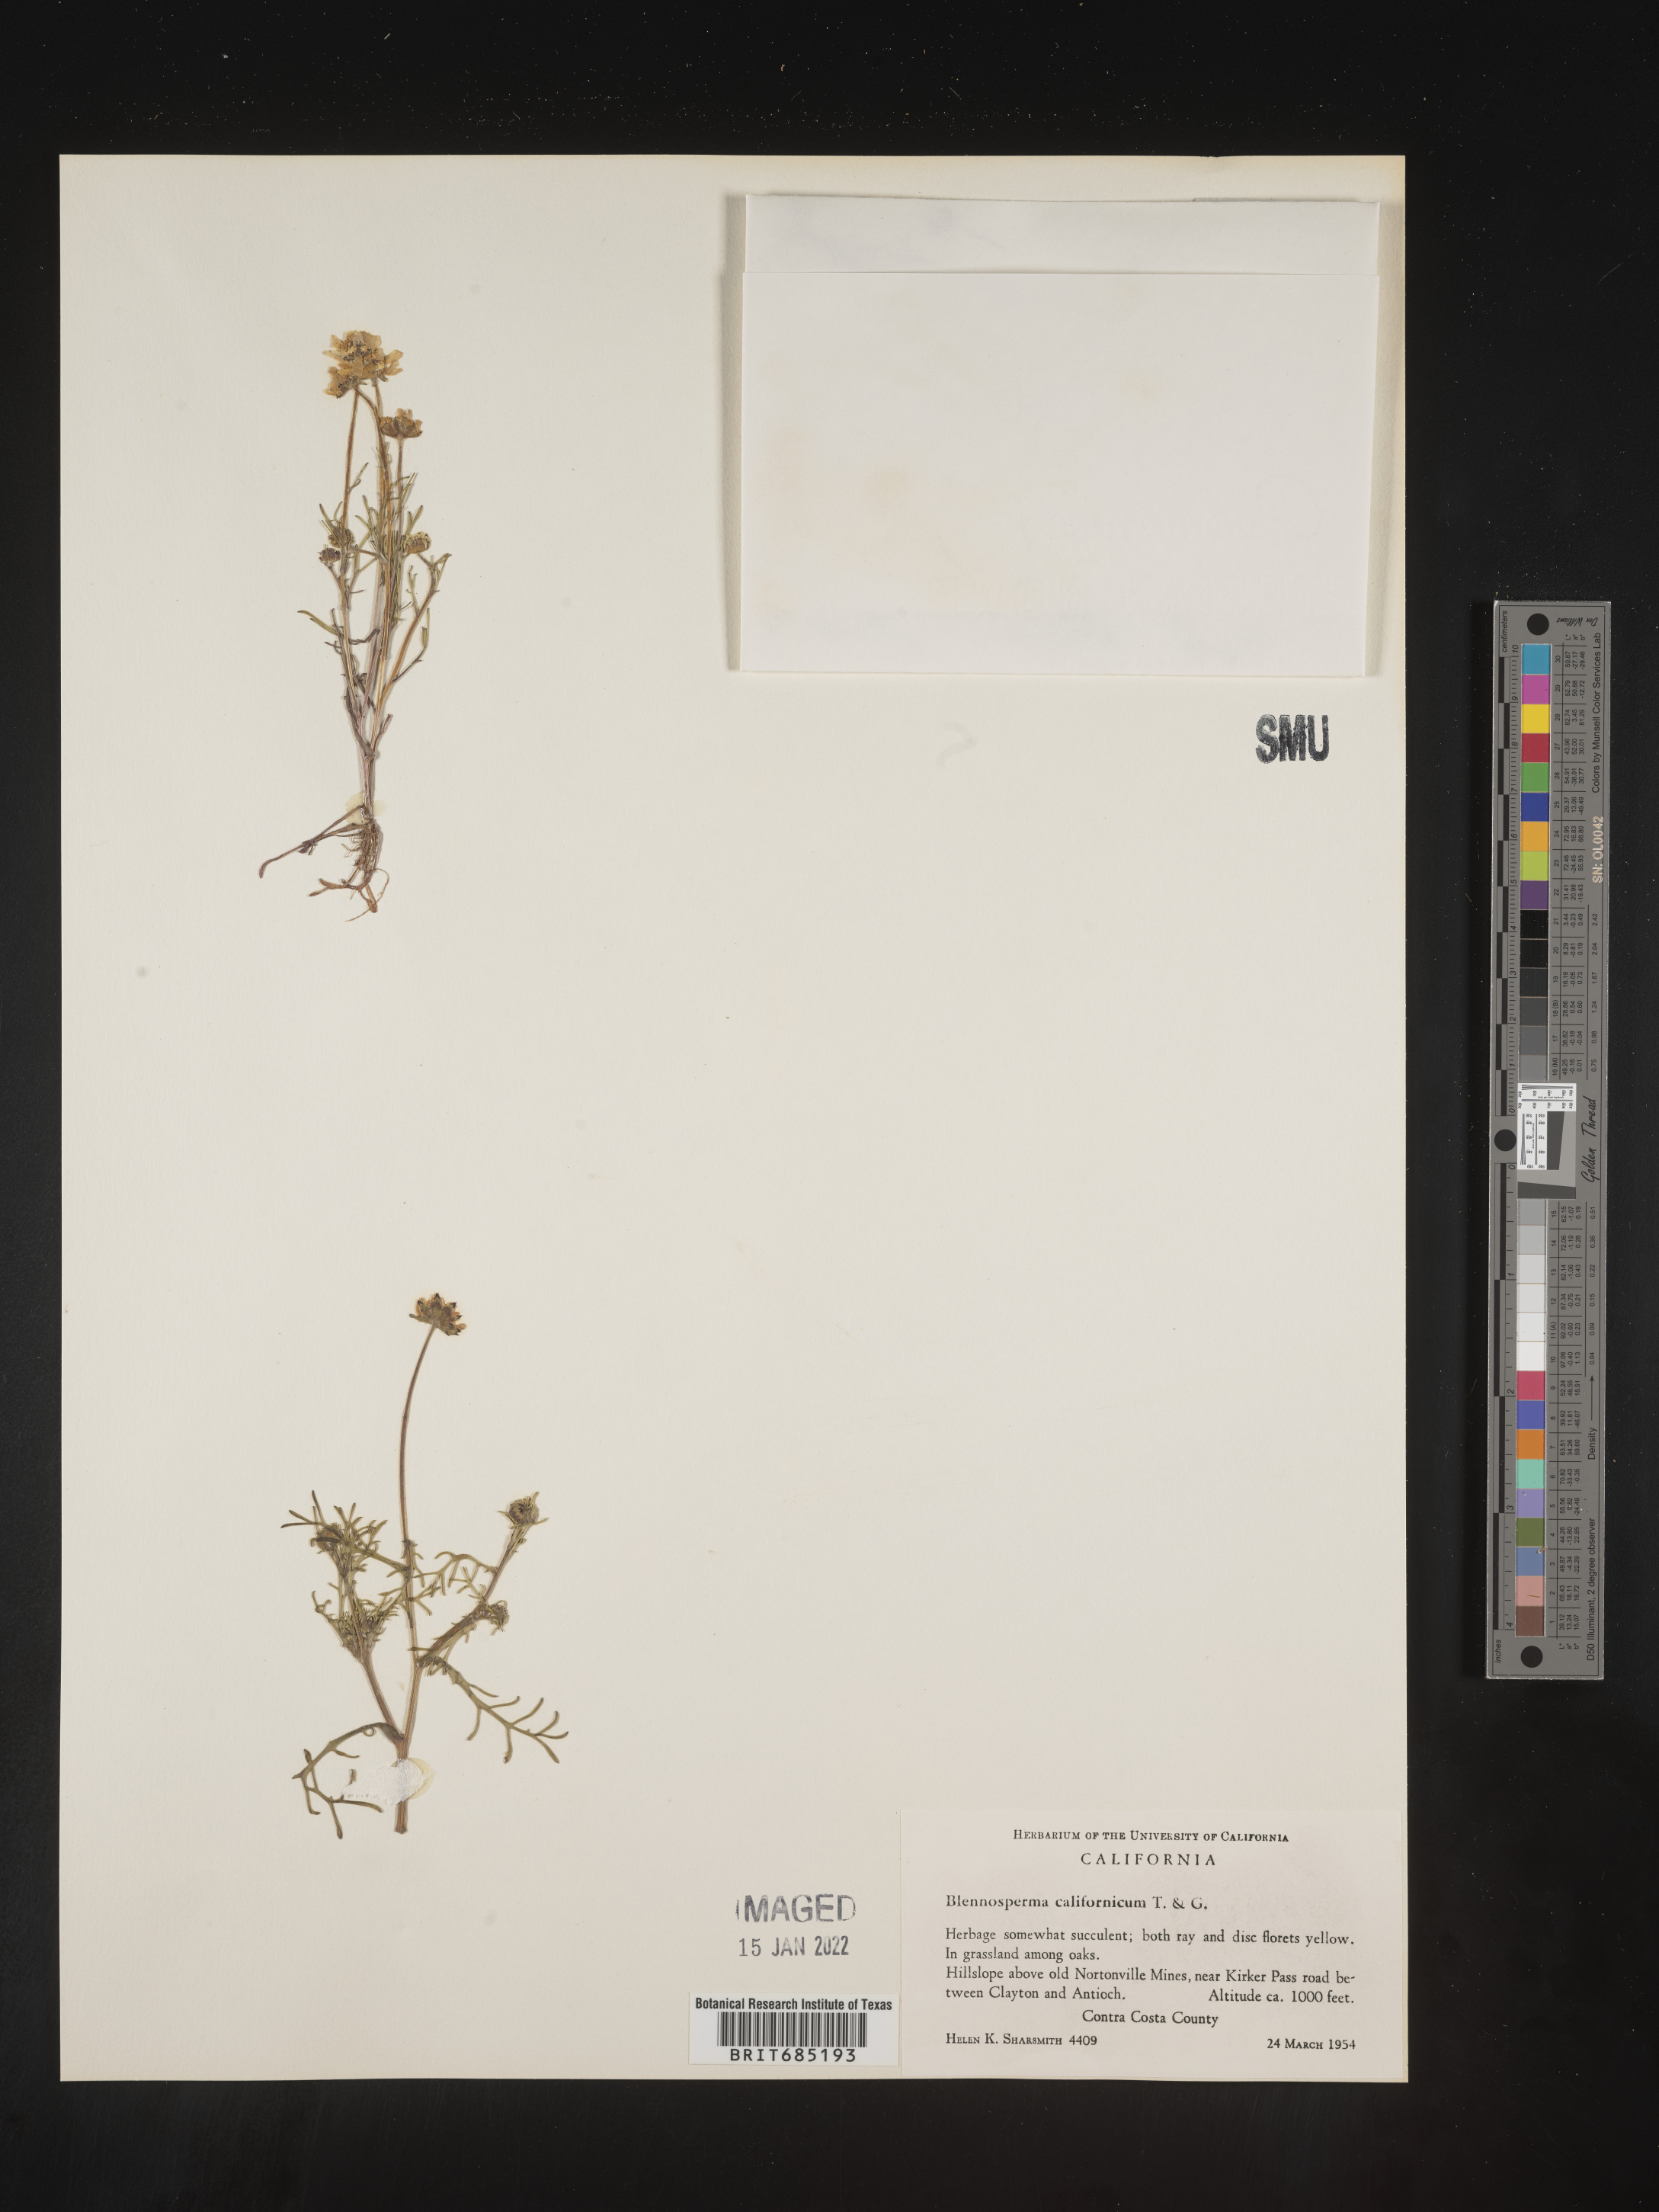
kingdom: Plantae
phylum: Tracheophyta
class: Magnoliopsida
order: Asterales
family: Asteraceae
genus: Blennosperma
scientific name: Blennosperma
